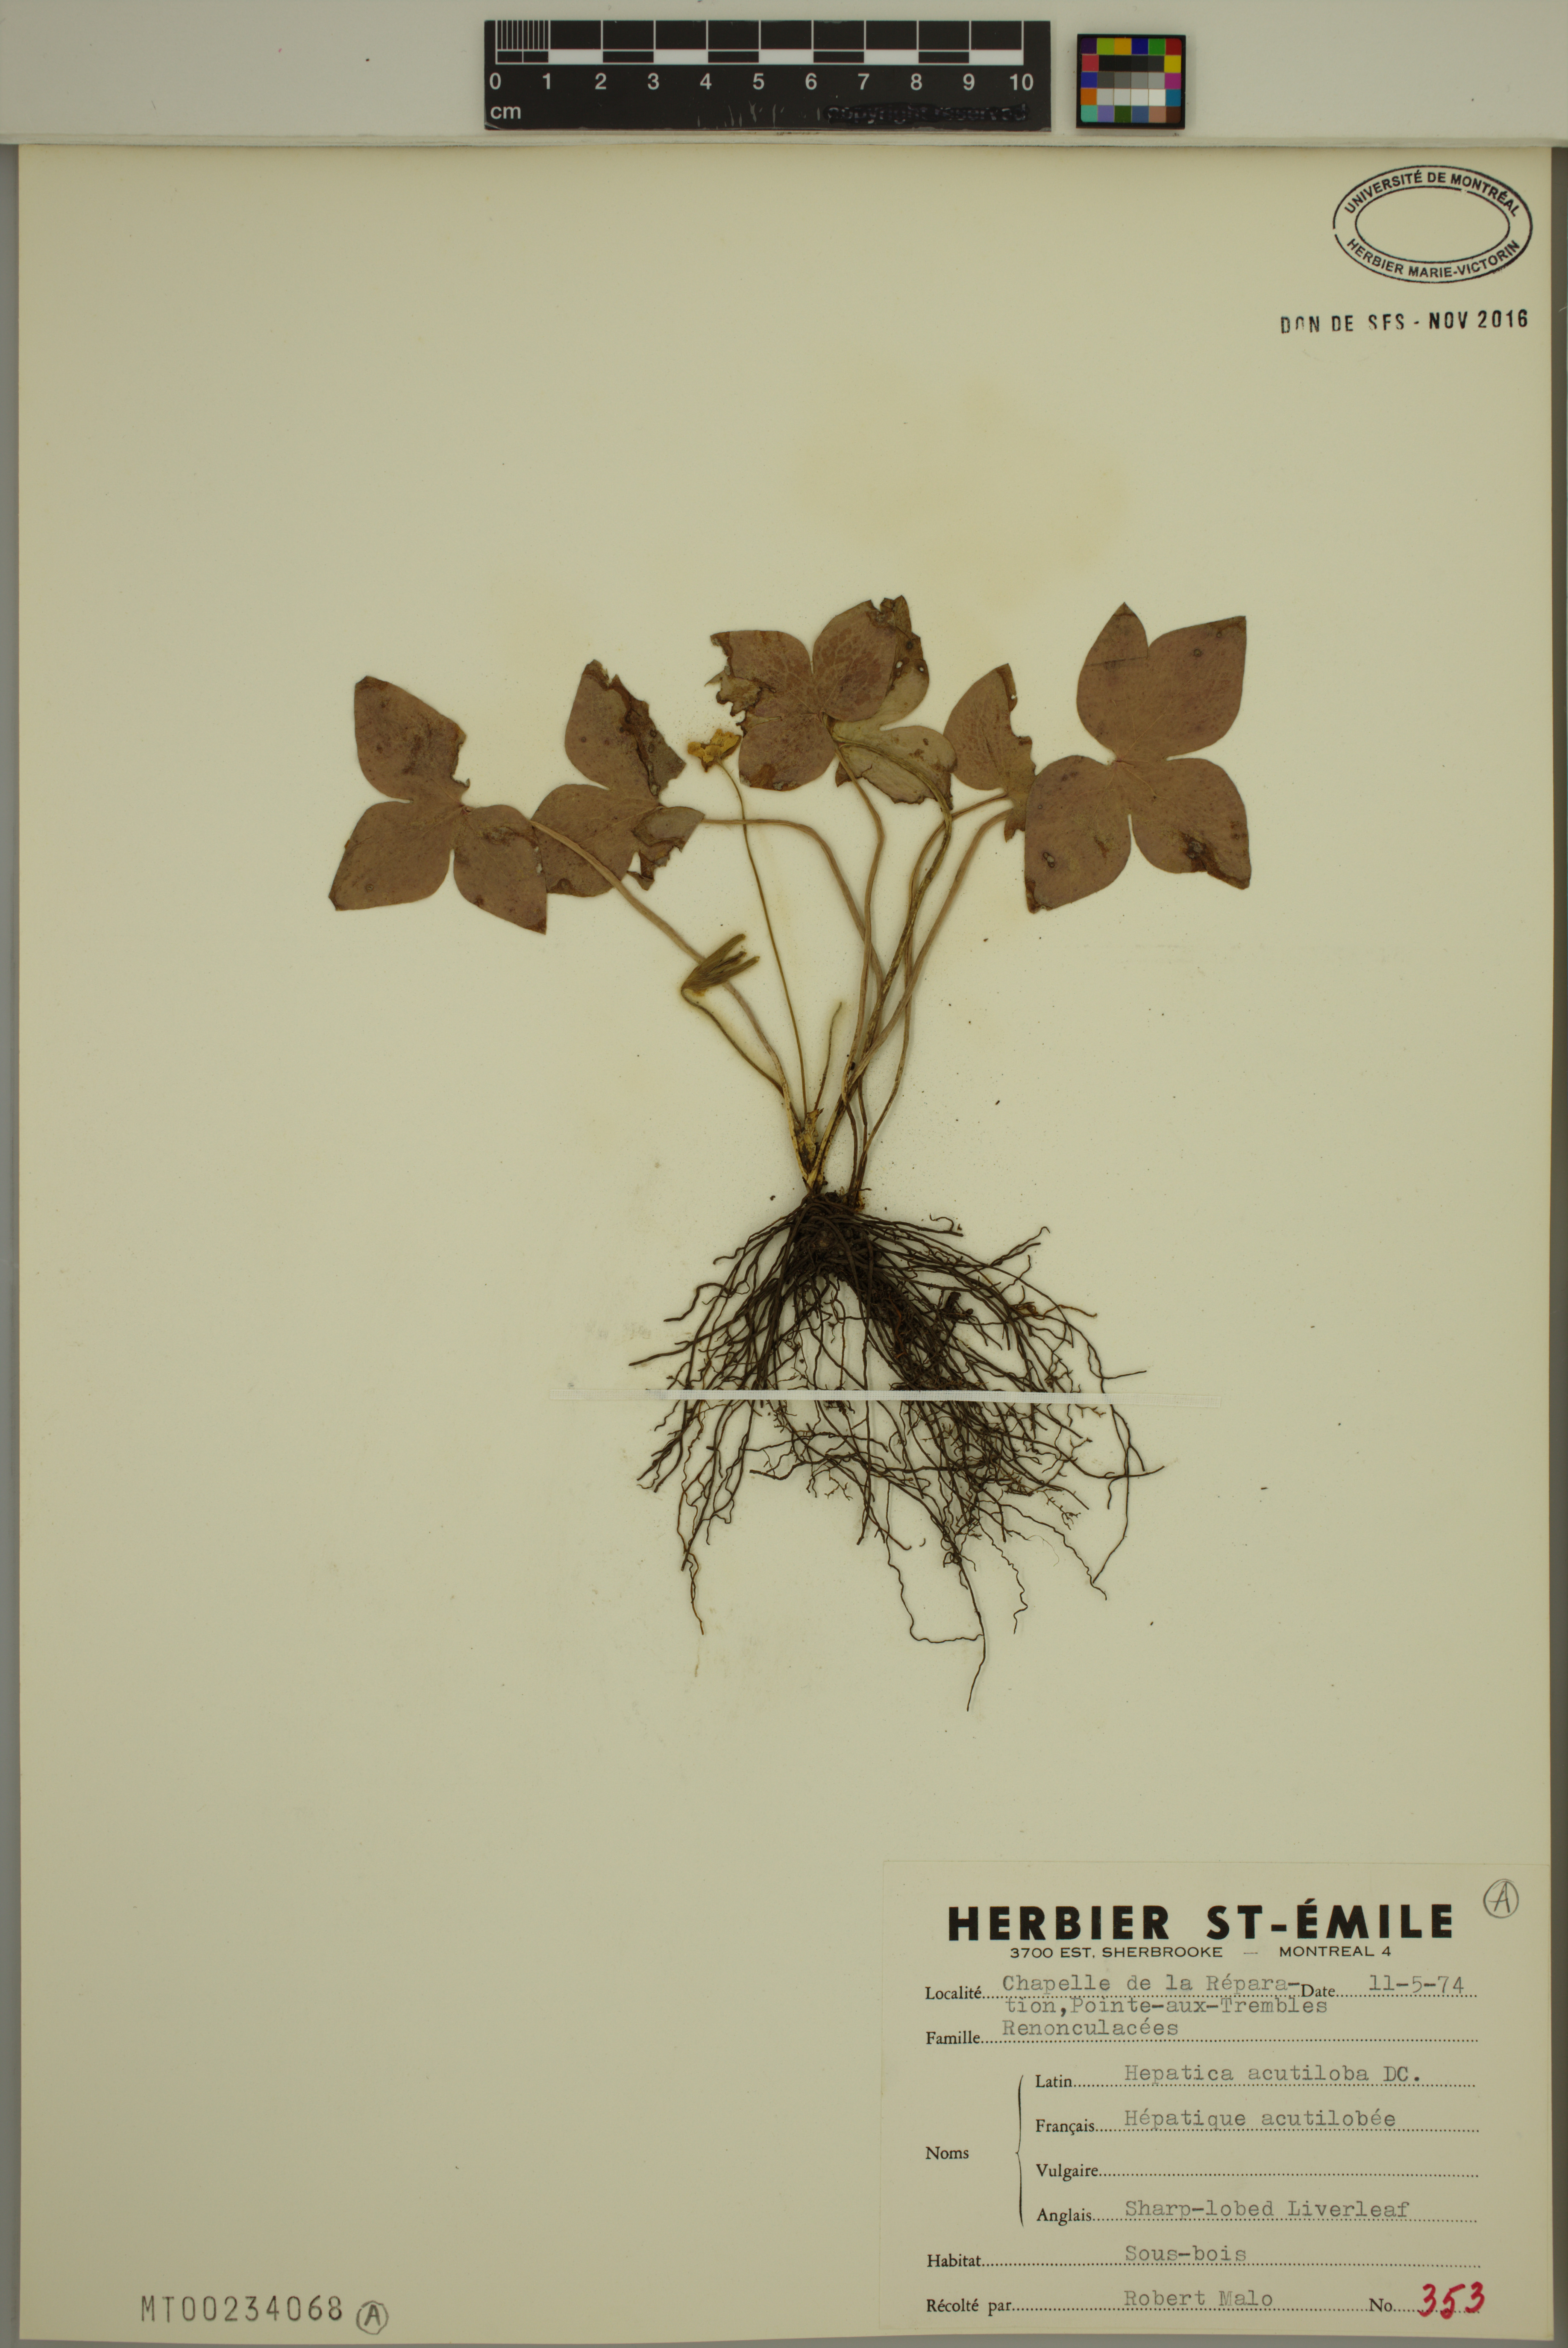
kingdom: Plantae
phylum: Tracheophyta
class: Magnoliopsida
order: Ranunculales
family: Ranunculaceae
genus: Hepatica
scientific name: Hepatica acutiloba
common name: Sharp-lobed hepatica
